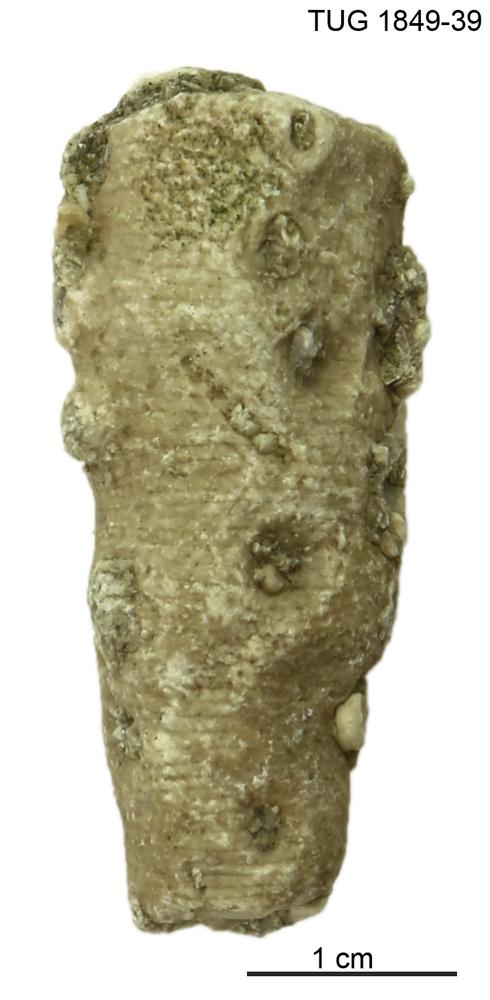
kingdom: Animalia
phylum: Echinodermata
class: Crinoidea
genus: Enallocrinus
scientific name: Enallocrinus
